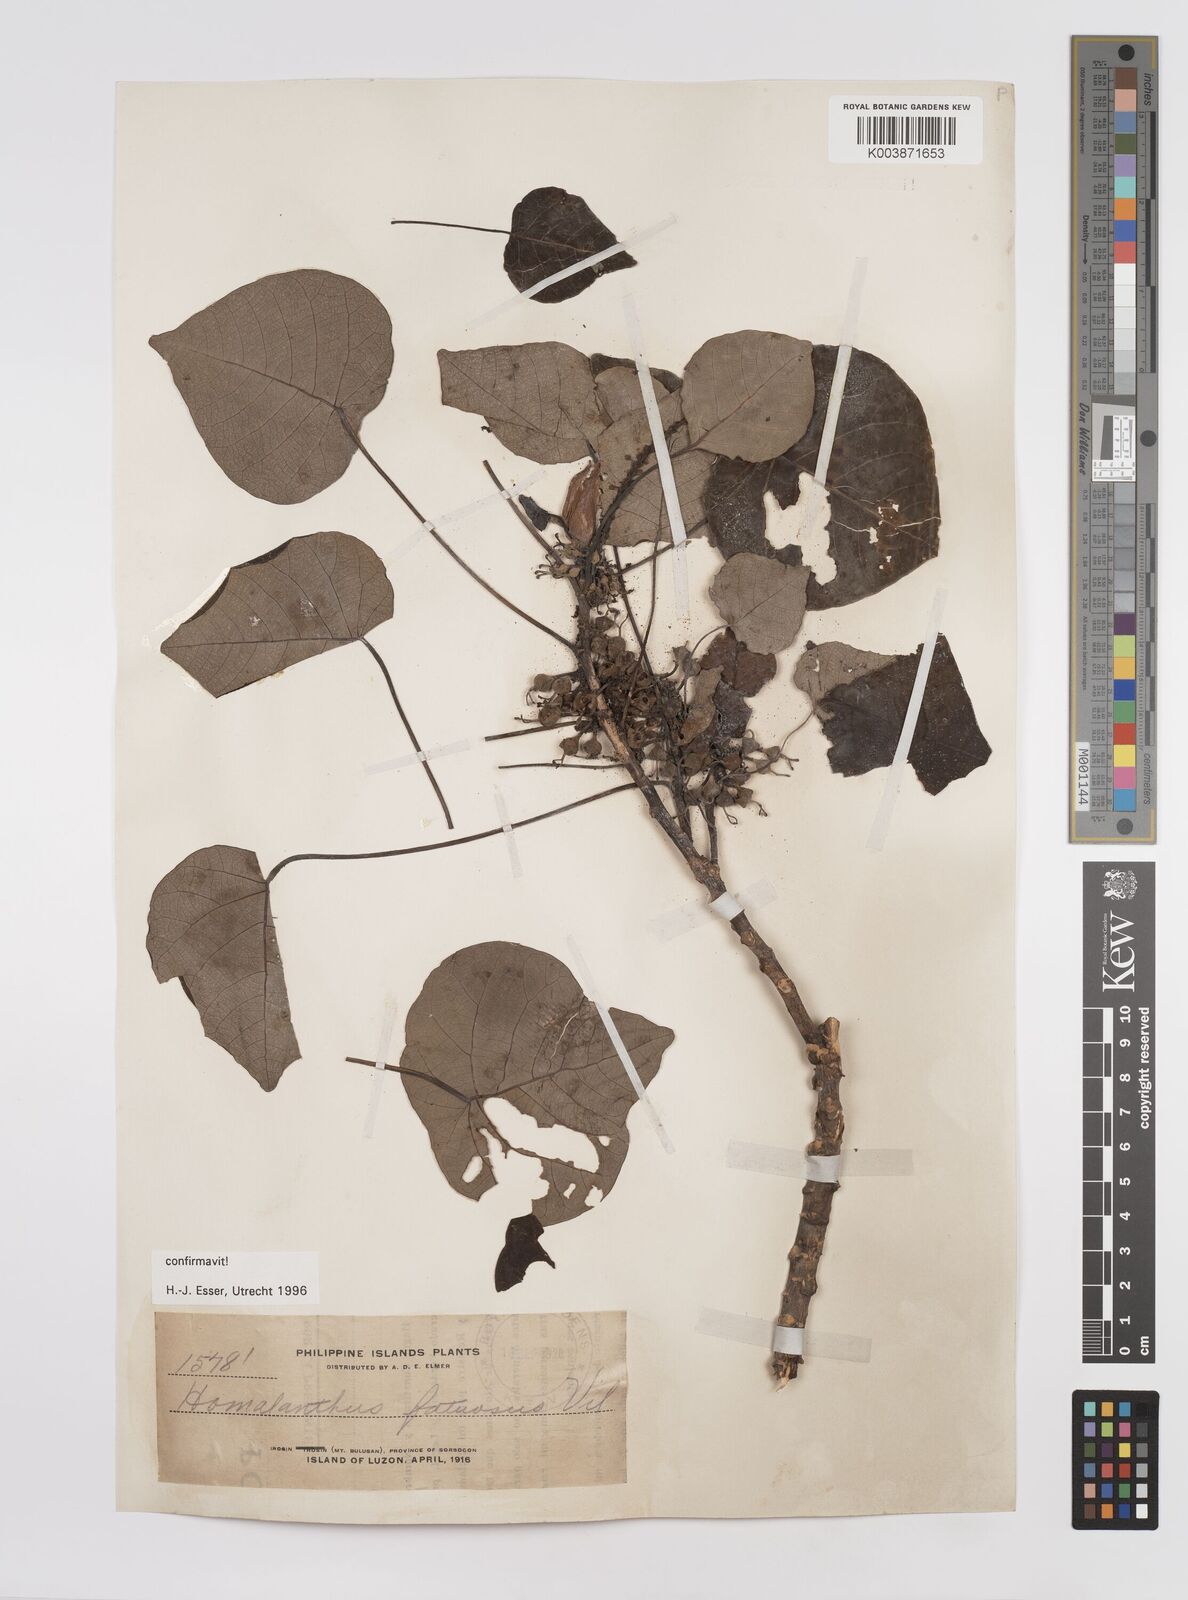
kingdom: Plantae
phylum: Tracheophyta
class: Magnoliopsida
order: Malpighiales
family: Euphorbiaceae
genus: Homalanthus
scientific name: Homalanthus fastuosus
